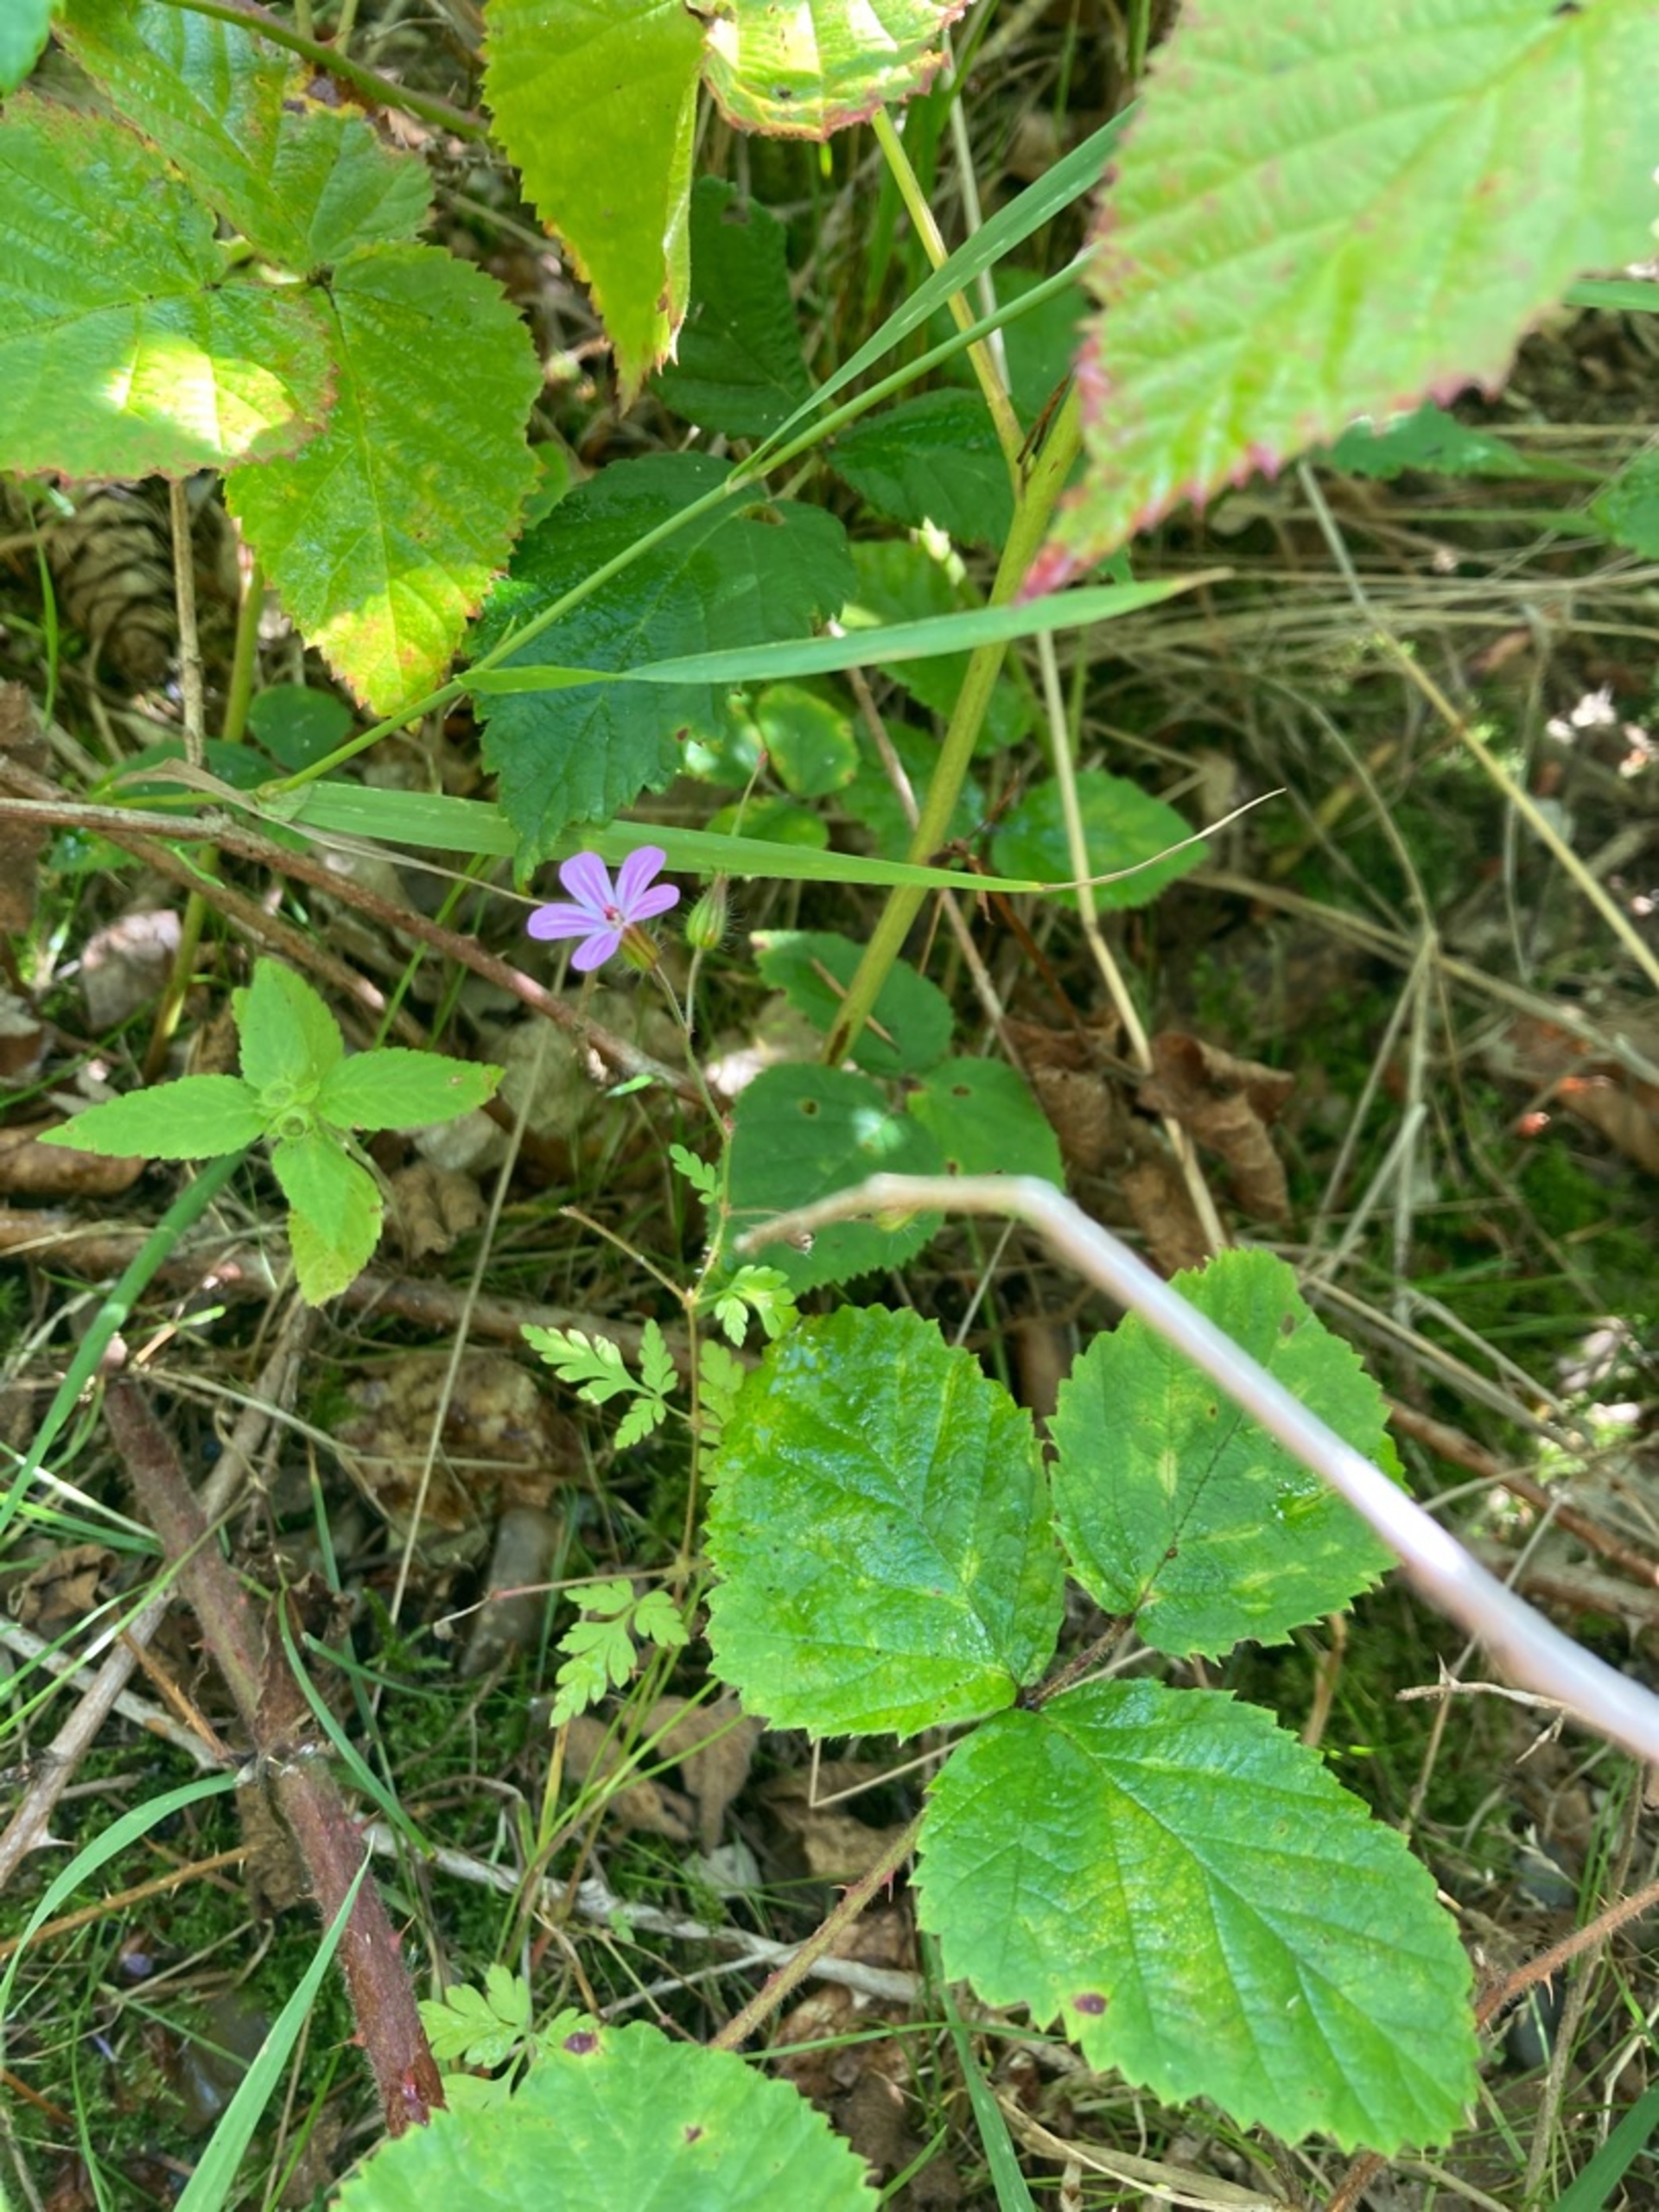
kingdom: Plantae
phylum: Tracheophyta
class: Magnoliopsida
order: Geraniales
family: Geraniaceae
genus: Geranium
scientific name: Geranium robertianum
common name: Stinkende storkenæb
